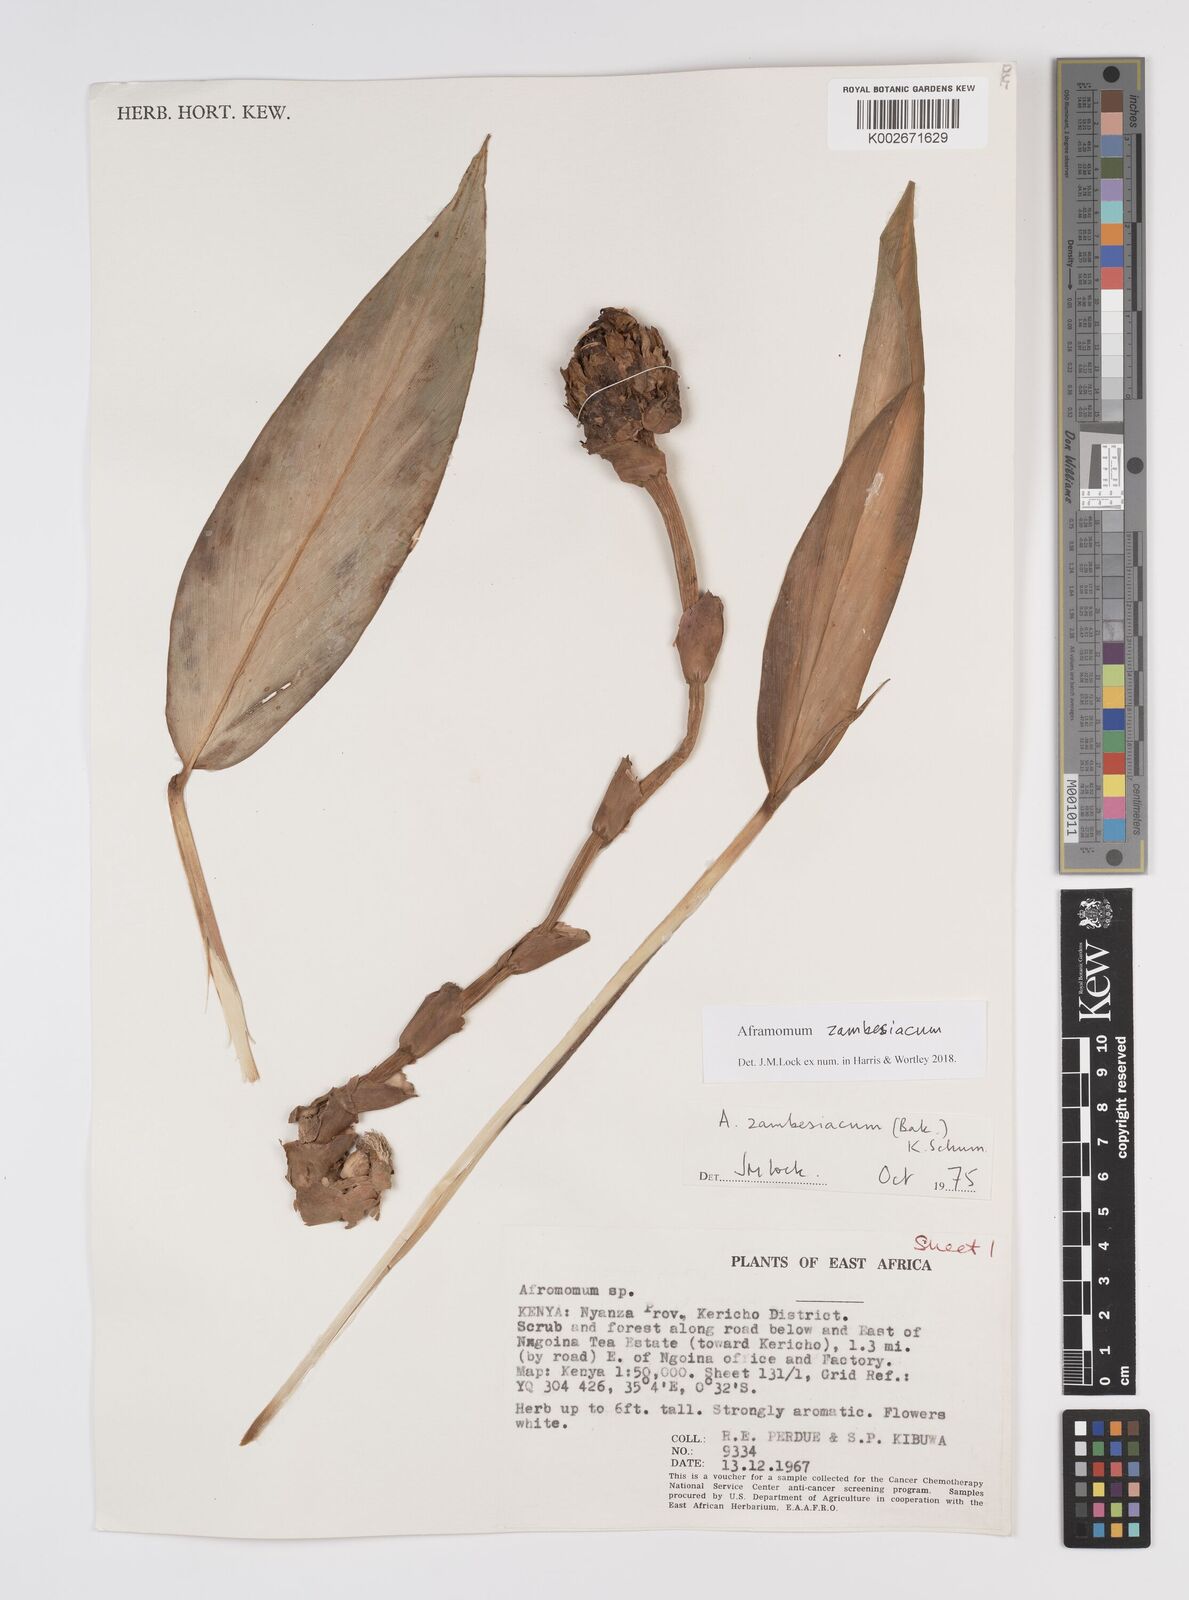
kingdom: Plantae
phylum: Tracheophyta
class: Liliopsida
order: Zingiberales
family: Zingiberaceae
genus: Aframomum
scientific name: Aframomum zambesiacum
